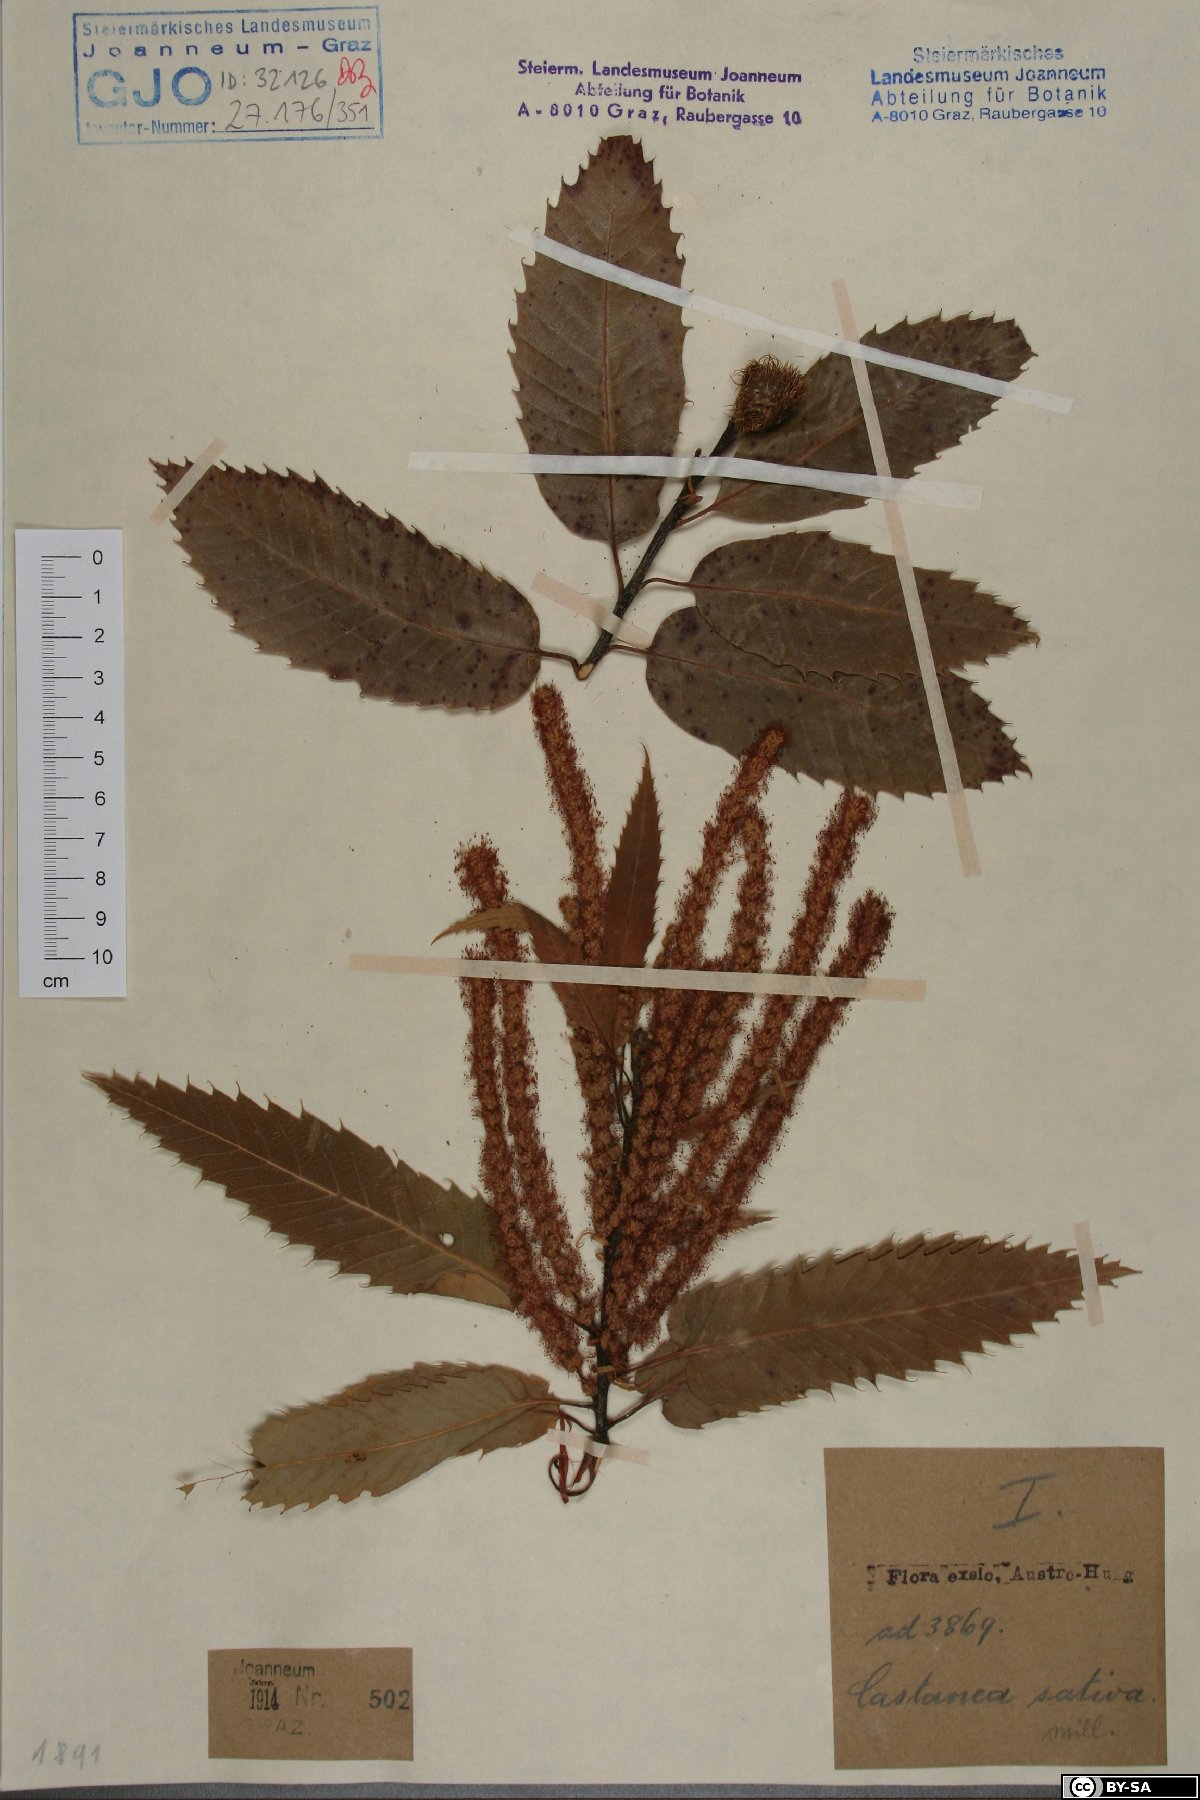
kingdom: Plantae
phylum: Tracheophyta
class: Magnoliopsida
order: Fagales
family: Fagaceae
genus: Castanea
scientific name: Castanea sativa
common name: Sweet chestnut
